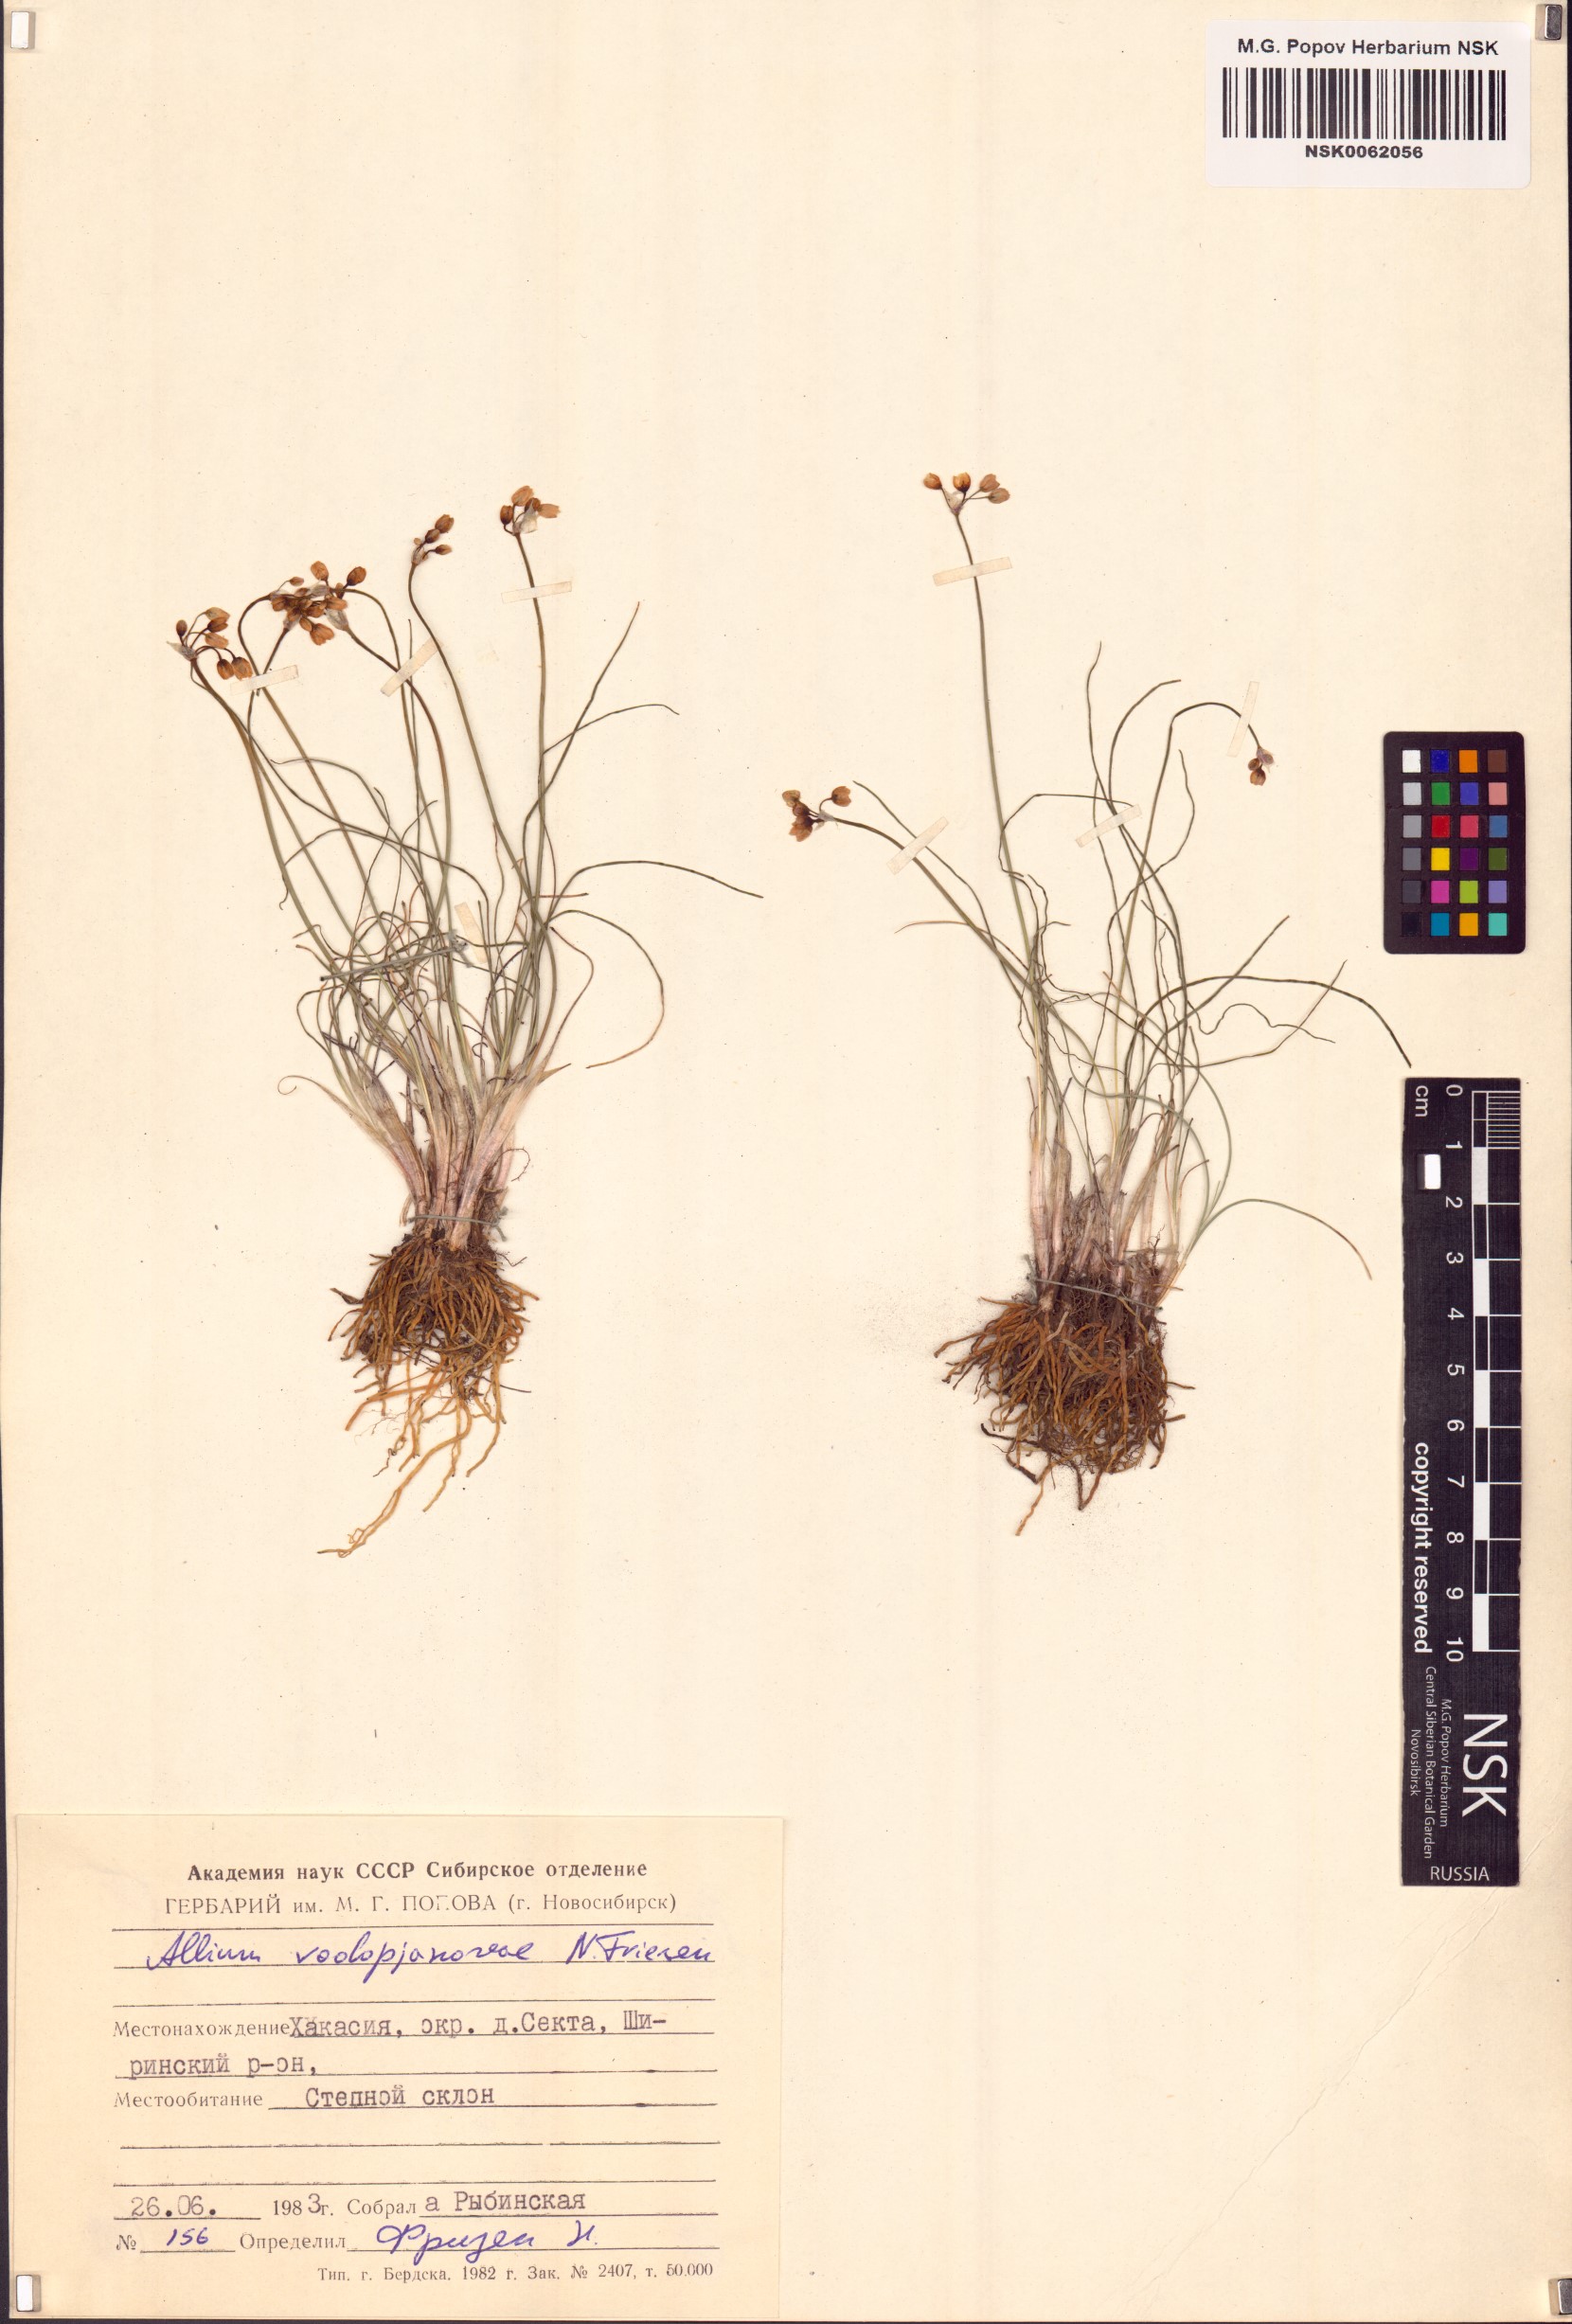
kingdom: Plantae
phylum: Tracheophyta
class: Liliopsida
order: Asparagales
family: Amaryllidaceae
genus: Allium
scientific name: Allium vodopjanovae
